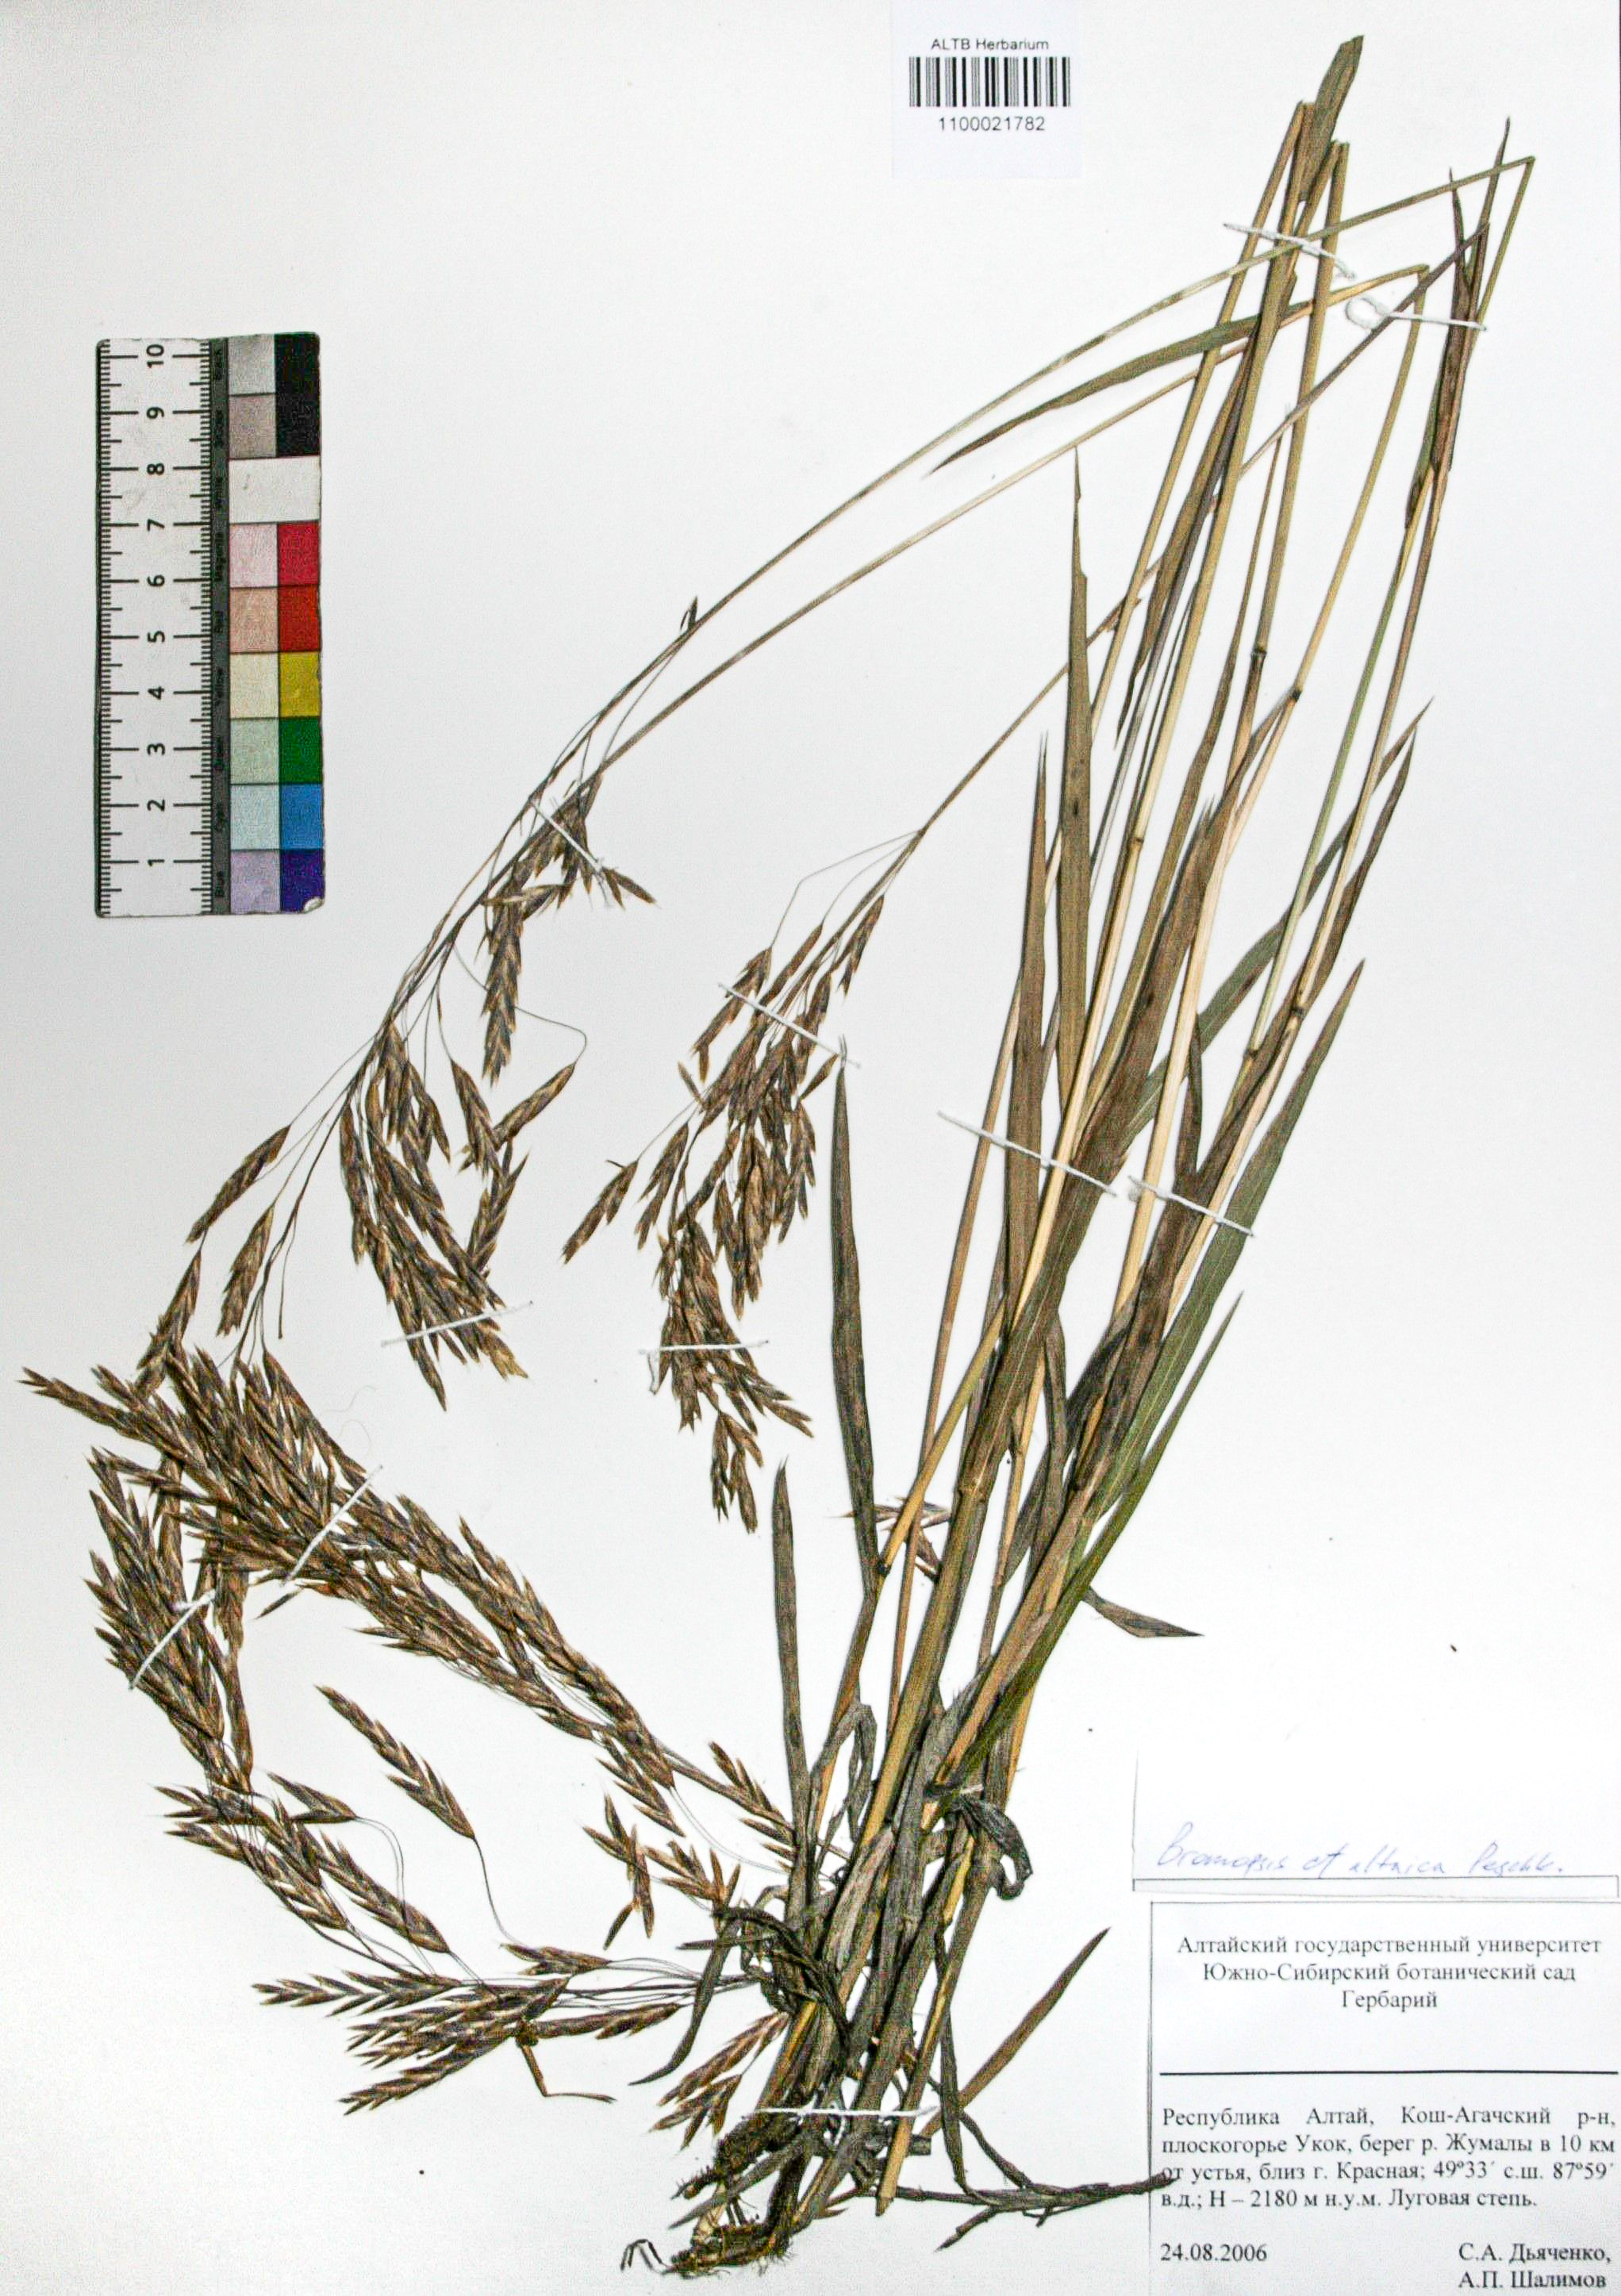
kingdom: Plantae
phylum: Tracheophyta
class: Liliopsida
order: Poales
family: Poaceae
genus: Bromus
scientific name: Bromus pumpellianus
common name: Pumpelly's brome
